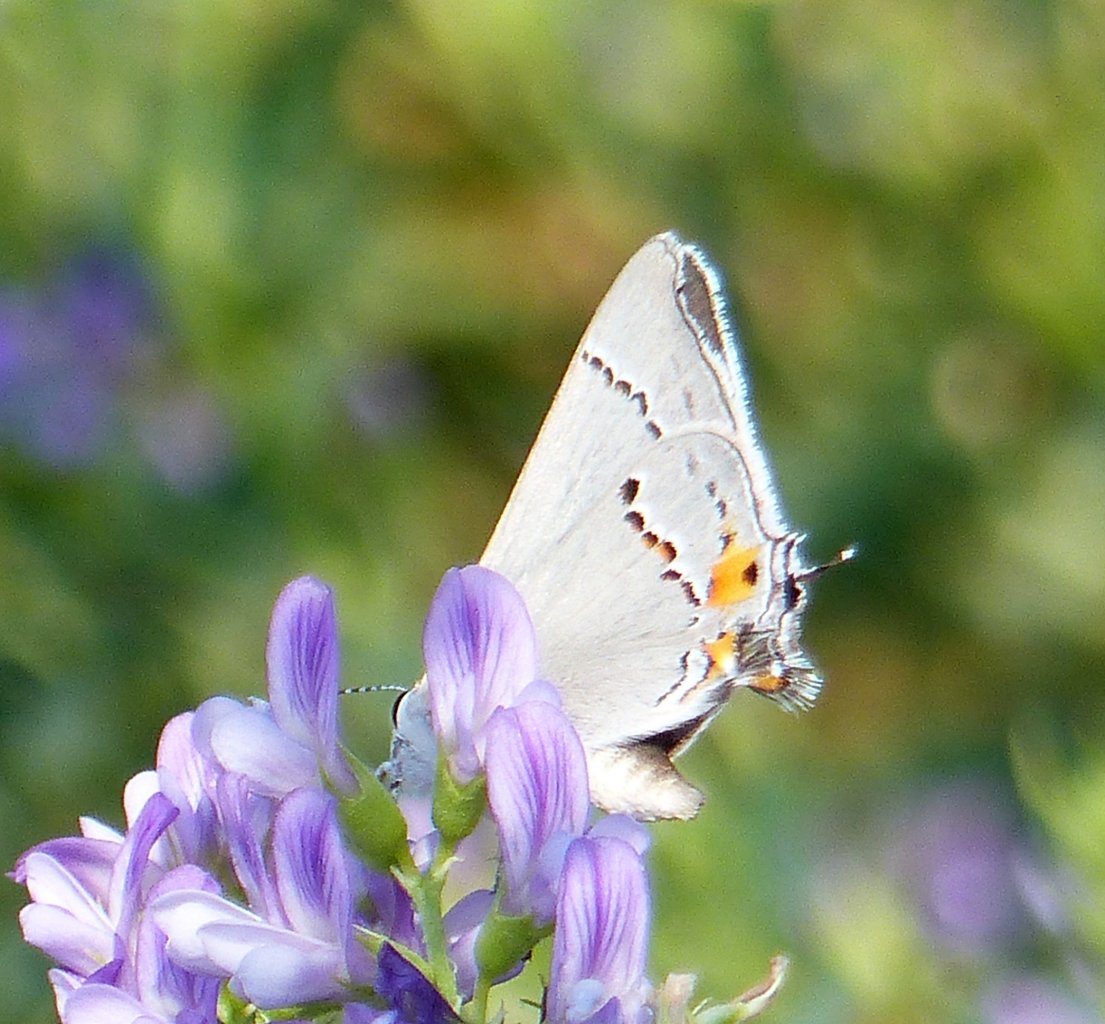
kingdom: Animalia
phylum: Arthropoda
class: Insecta
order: Lepidoptera
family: Lycaenidae
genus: Strymon
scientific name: Strymon melinus
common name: Gray Hairstreak
